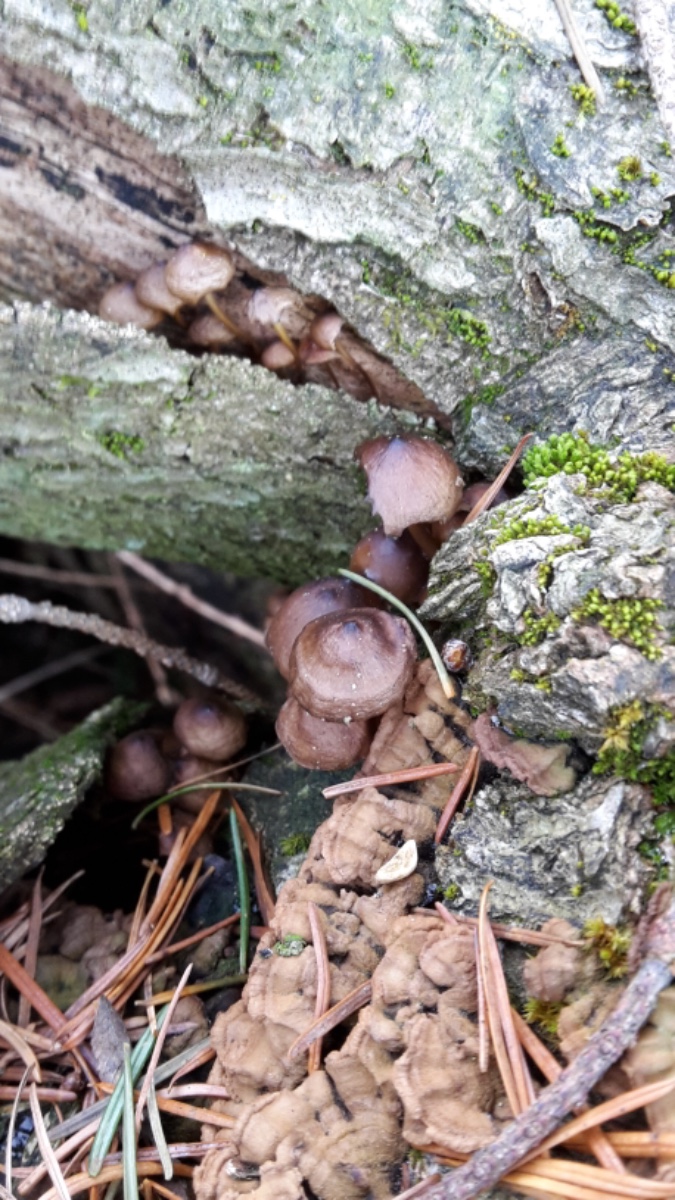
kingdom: Fungi
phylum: Basidiomycota
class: Agaricomycetes
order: Agaricales
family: Mycenaceae
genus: Mycena
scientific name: Mycena tintinnabulum
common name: vinter-huesvamp
